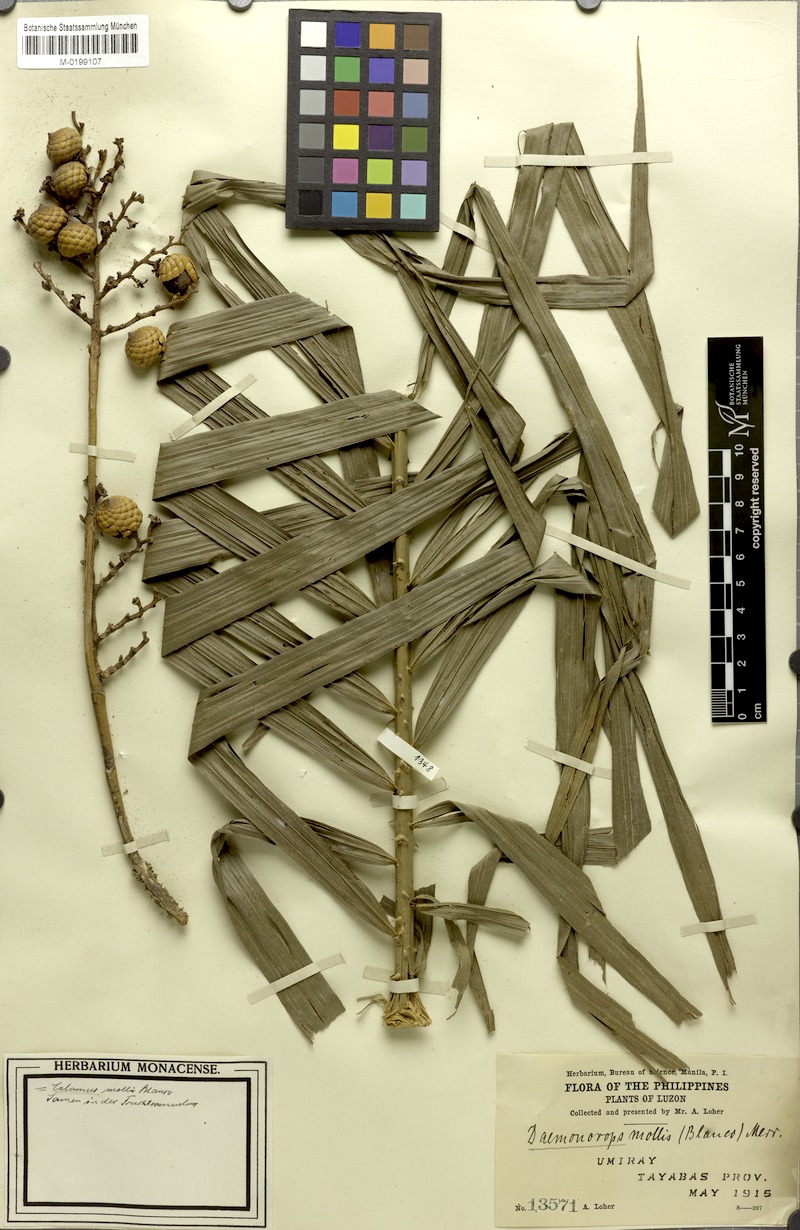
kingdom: Plantae
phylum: Tracheophyta
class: Liliopsida
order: Arecales
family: Arecaceae
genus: Calamus
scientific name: Calamus oblongus
